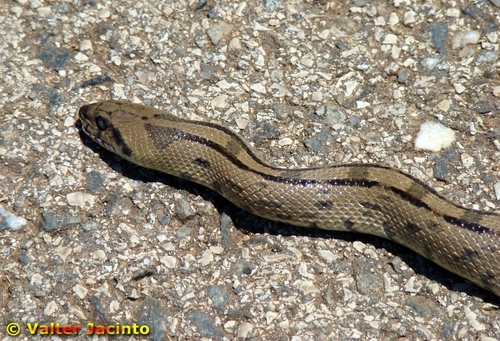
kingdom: Animalia
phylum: Chordata
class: Squamata
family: Colubridae
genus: Zamenis
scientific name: Zamenis scalaris
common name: Ladder snakes
